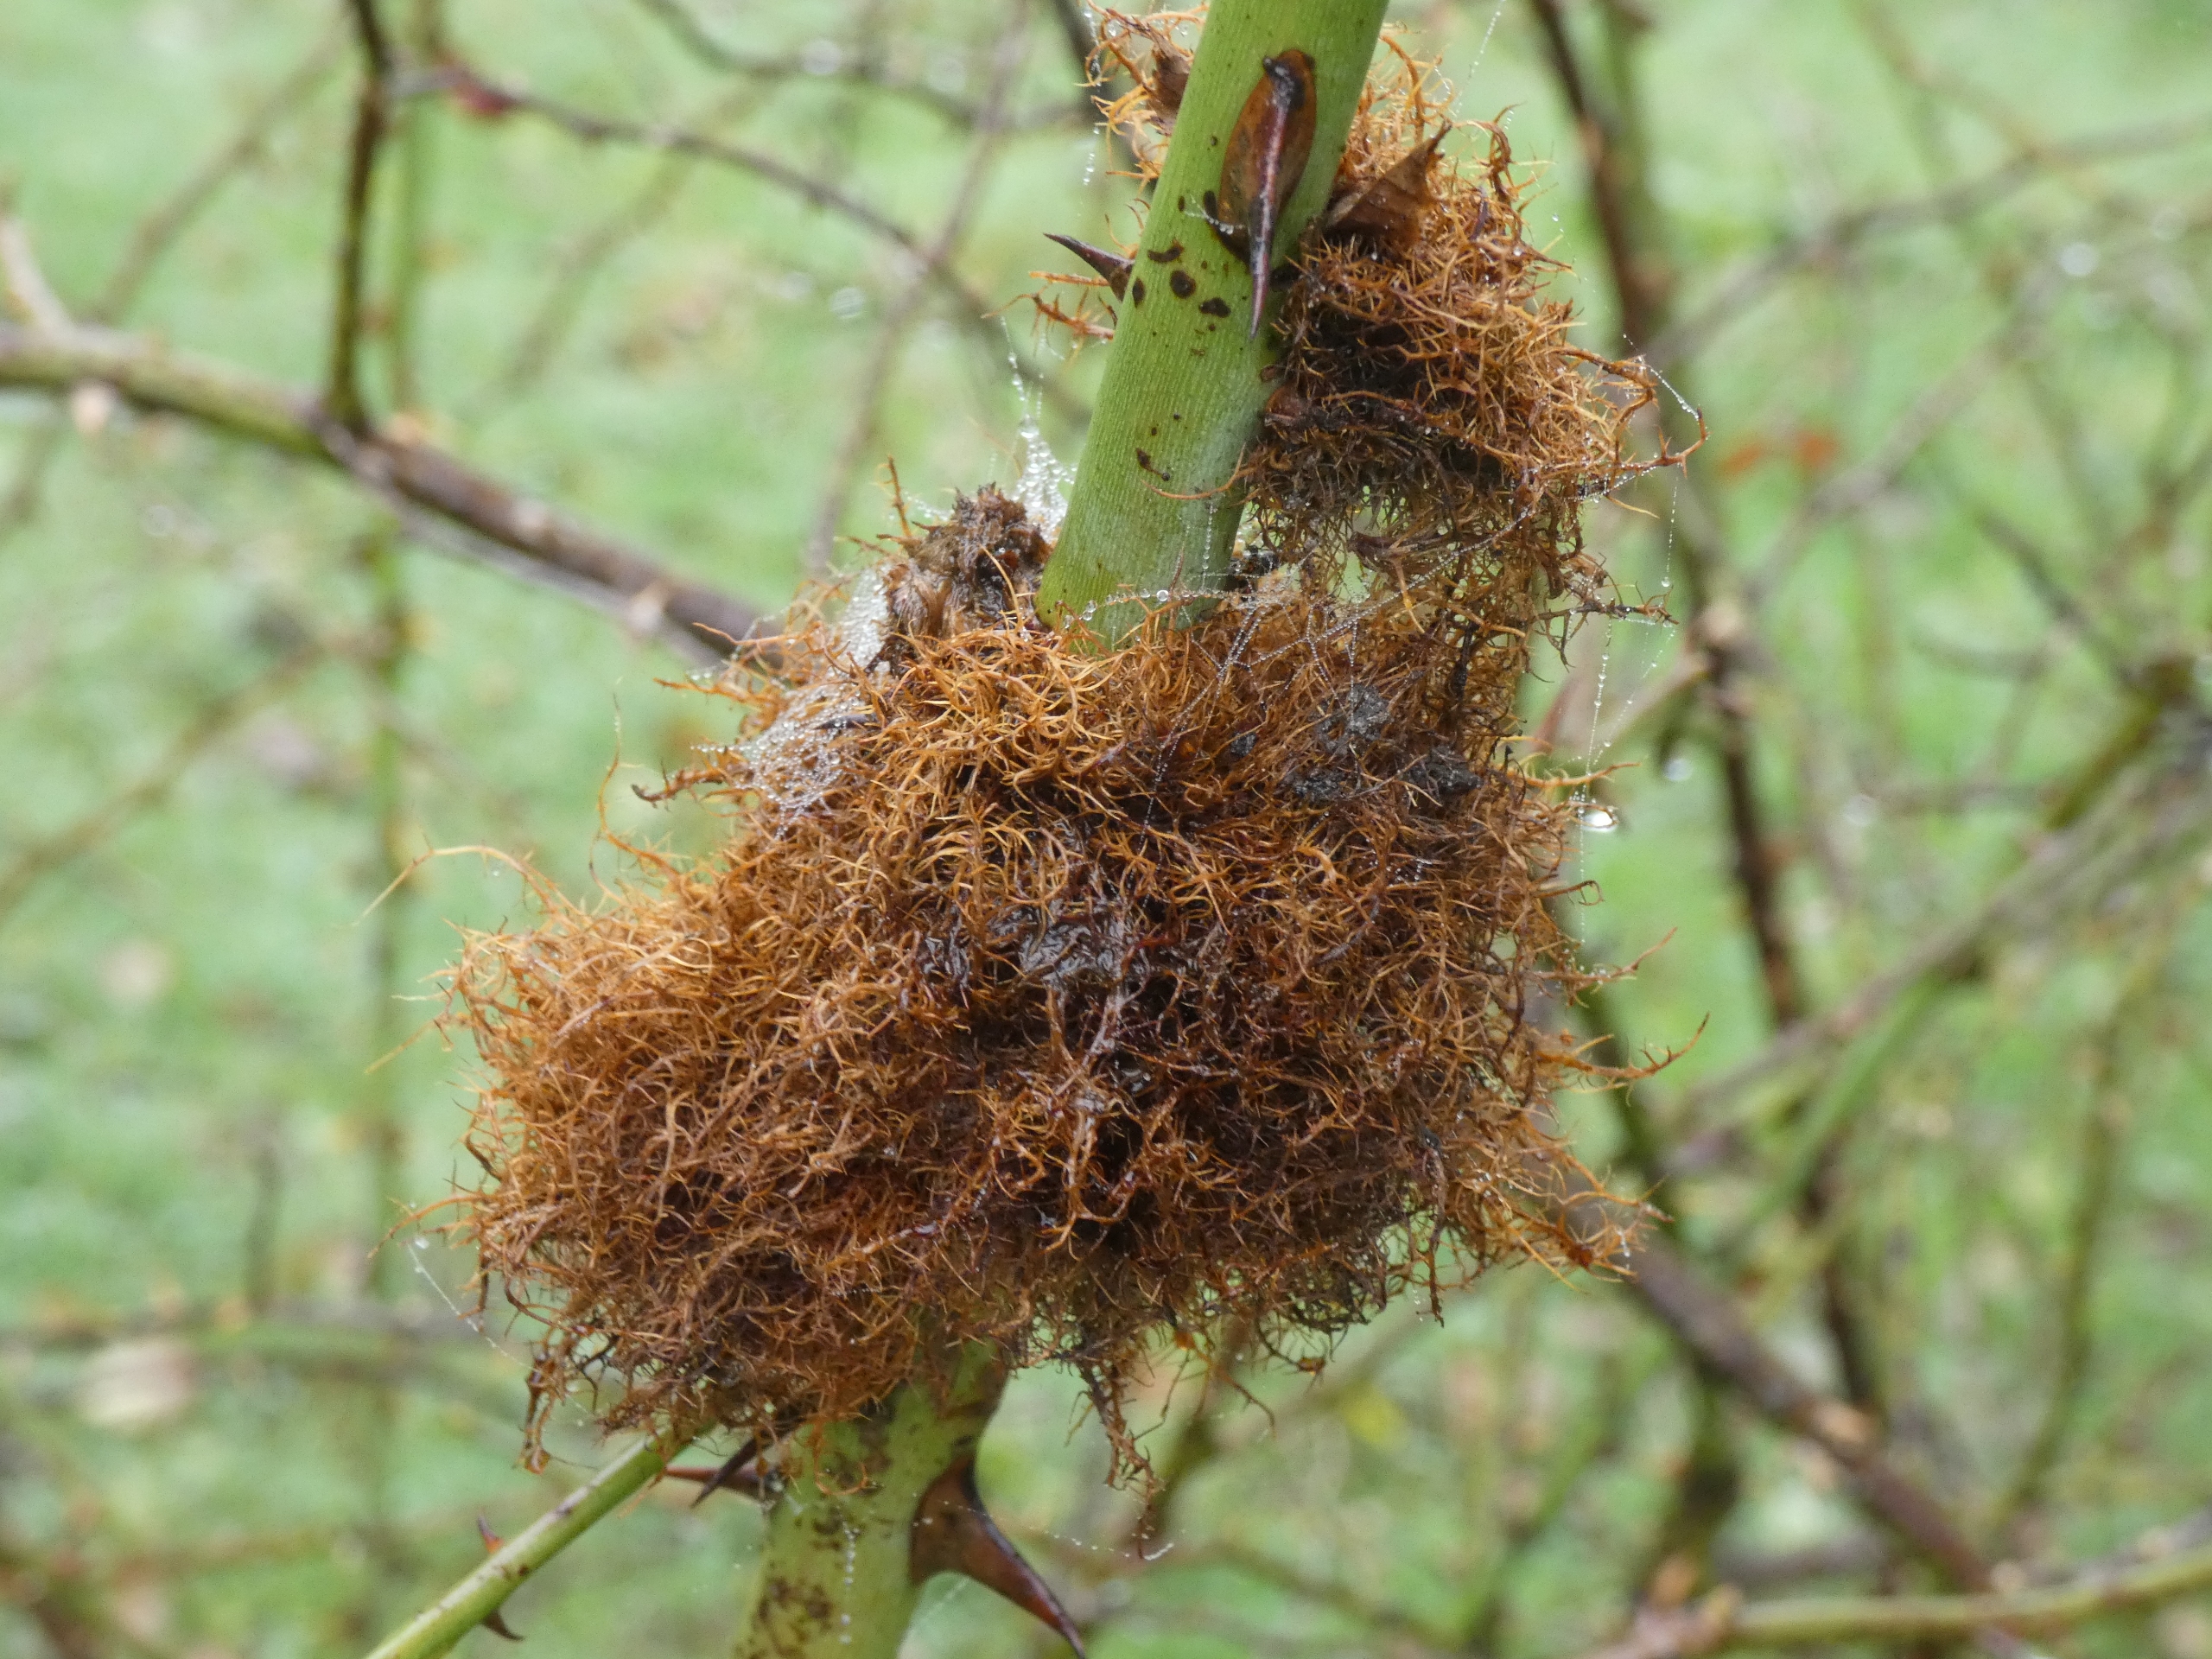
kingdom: Animalia
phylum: Arthropoda
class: Insecta
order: Hymenoptera
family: Cynipidae
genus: Diplolepis
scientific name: Diplolepis rosae
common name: Bedeguargalhveps
